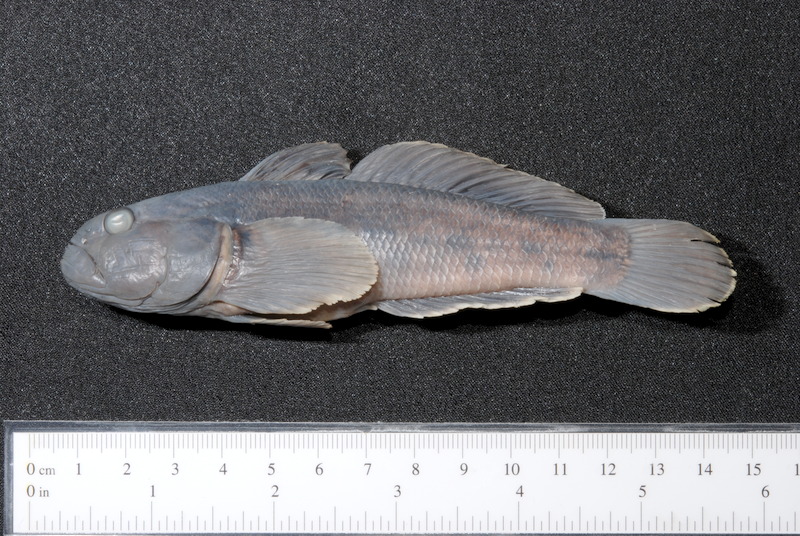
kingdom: Animalia
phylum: Chordata
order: Perciformes
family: Gobiidae
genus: Neogobius
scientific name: Neogobius melanostomus
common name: Round goby
